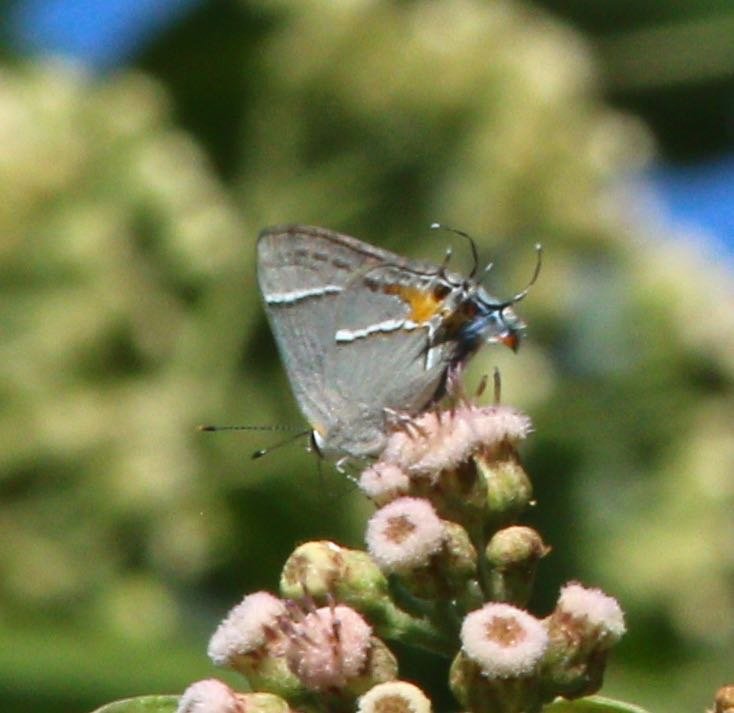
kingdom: Animalia
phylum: Arthropoda
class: Insecta
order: Lepidoptera
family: Lycaenidae
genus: Thecla
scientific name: Thecla martialis
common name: Martial Scrub-Hairstreak
